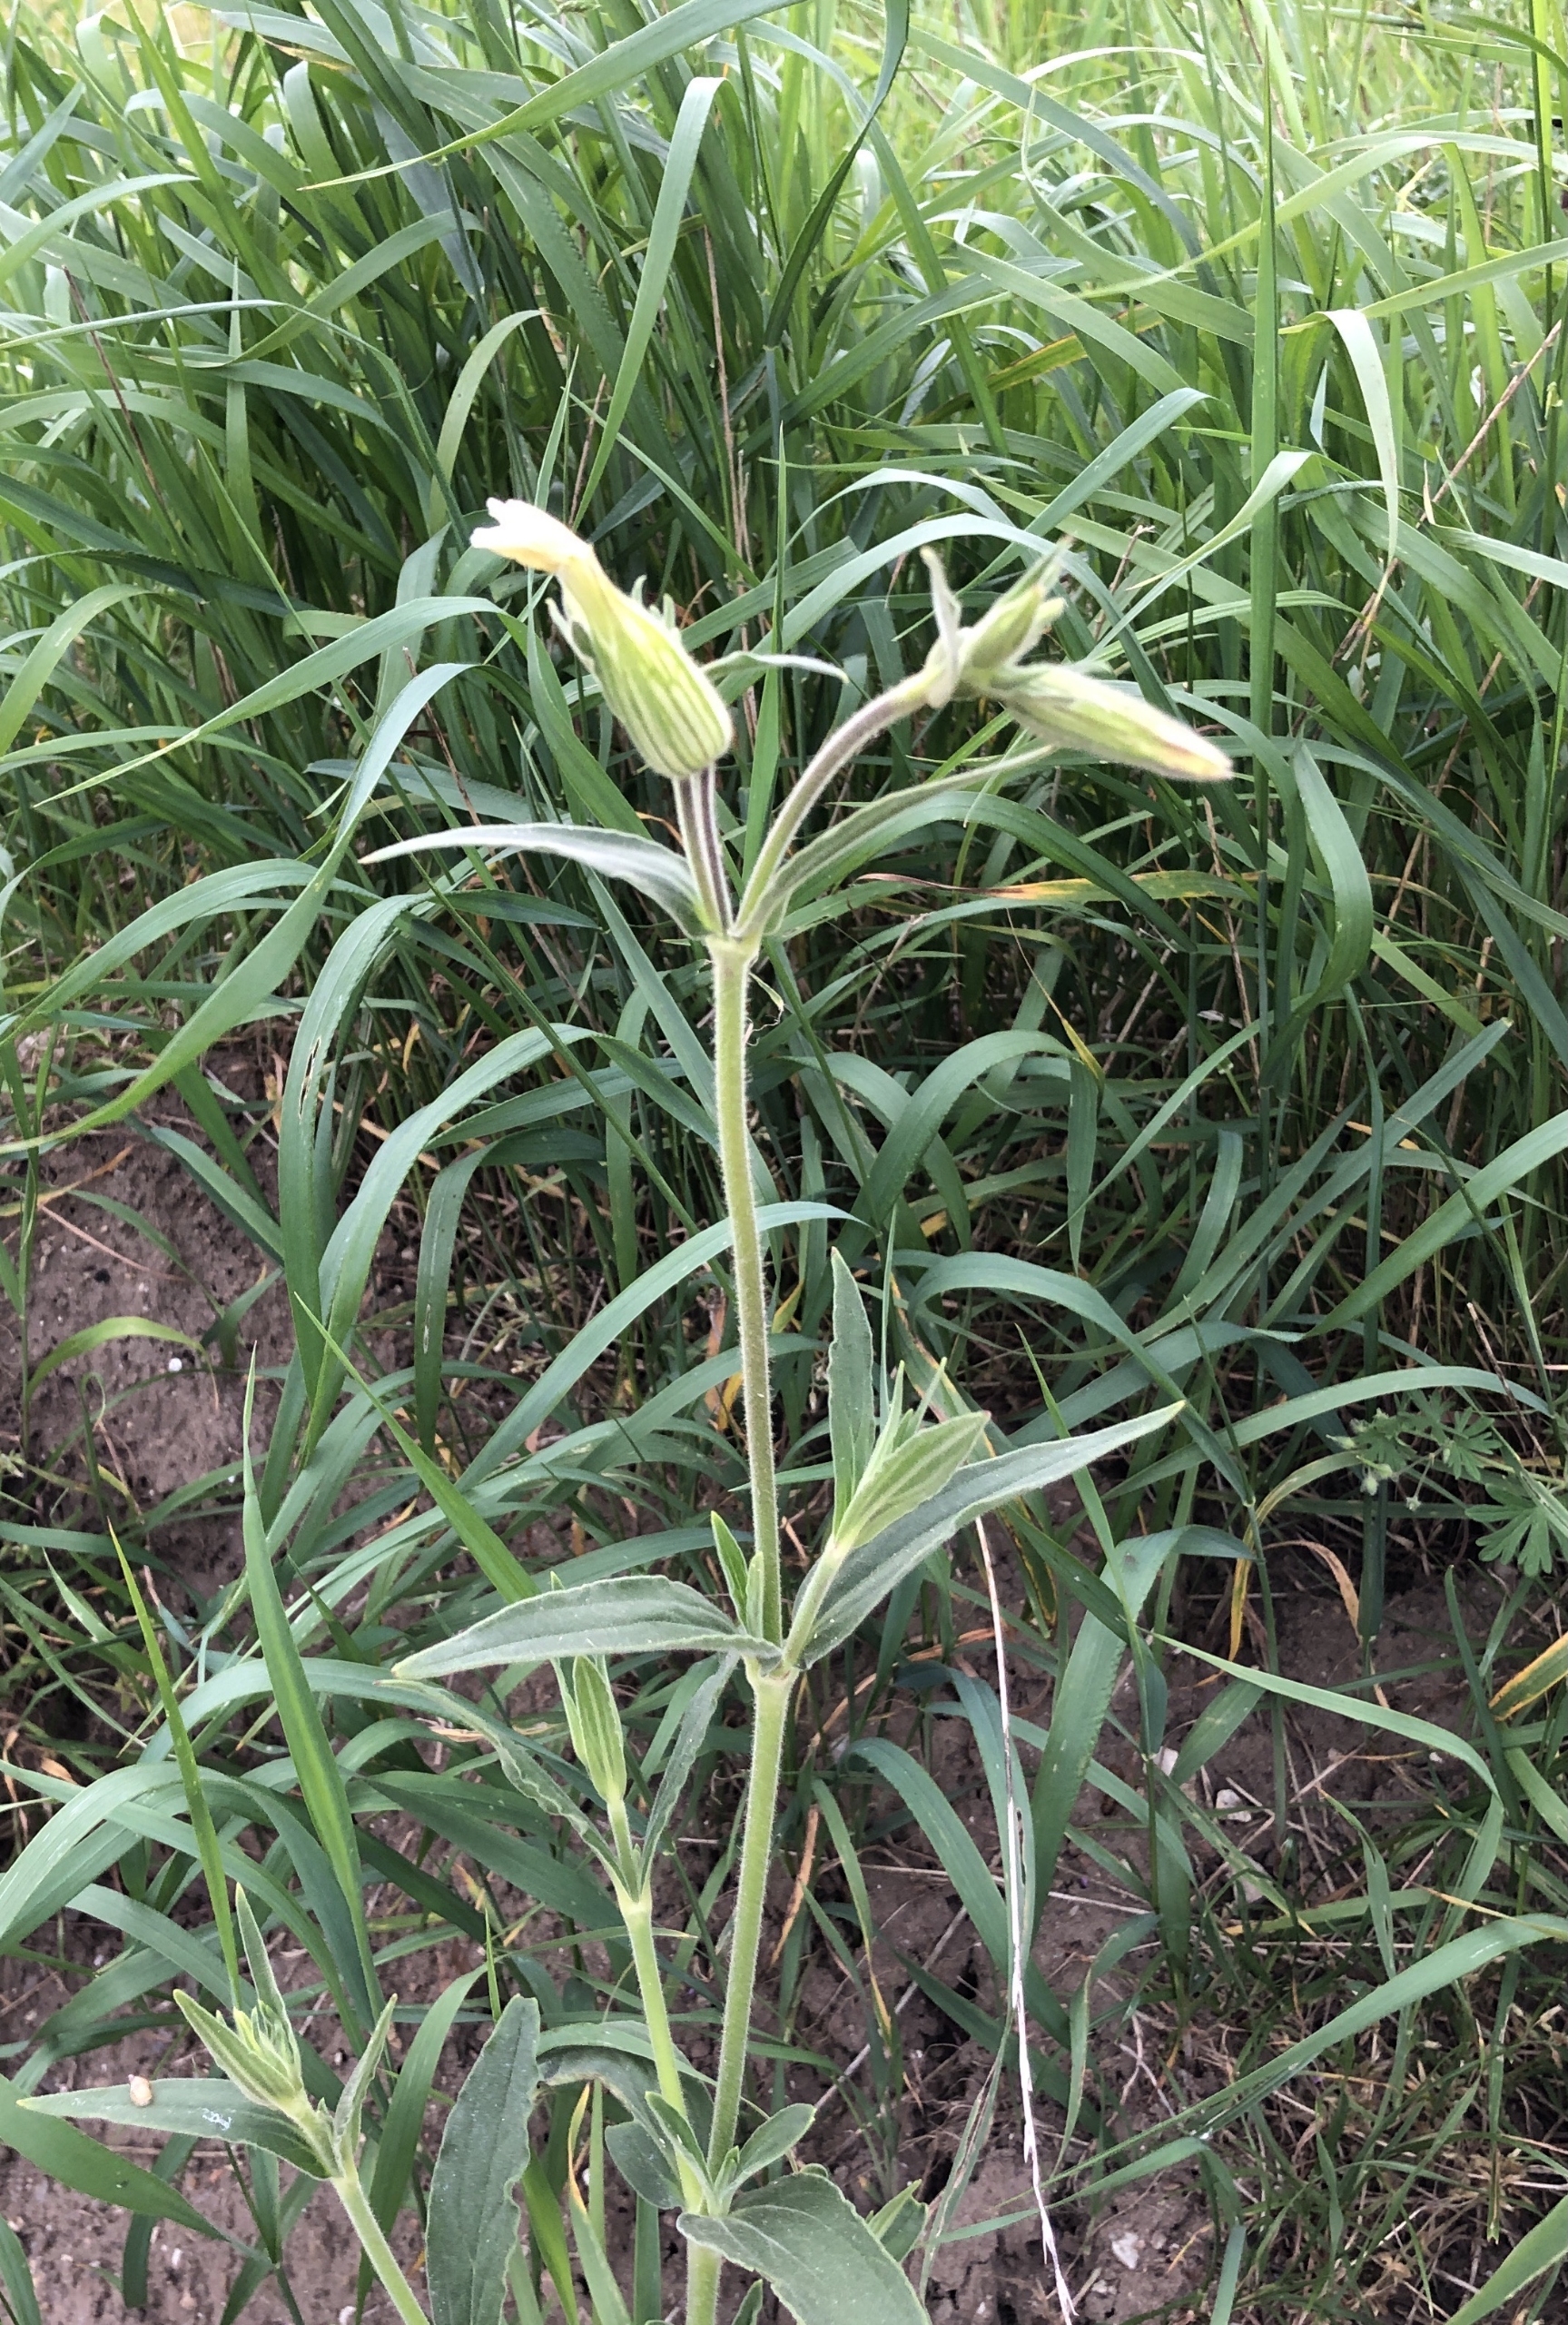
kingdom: Plantae
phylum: Tracheophyta
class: Magnoliopsida
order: Caryophyllales
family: Caryophyllaceae
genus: Silene
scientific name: Silene latifolia
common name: Aftenpragtstjerne
